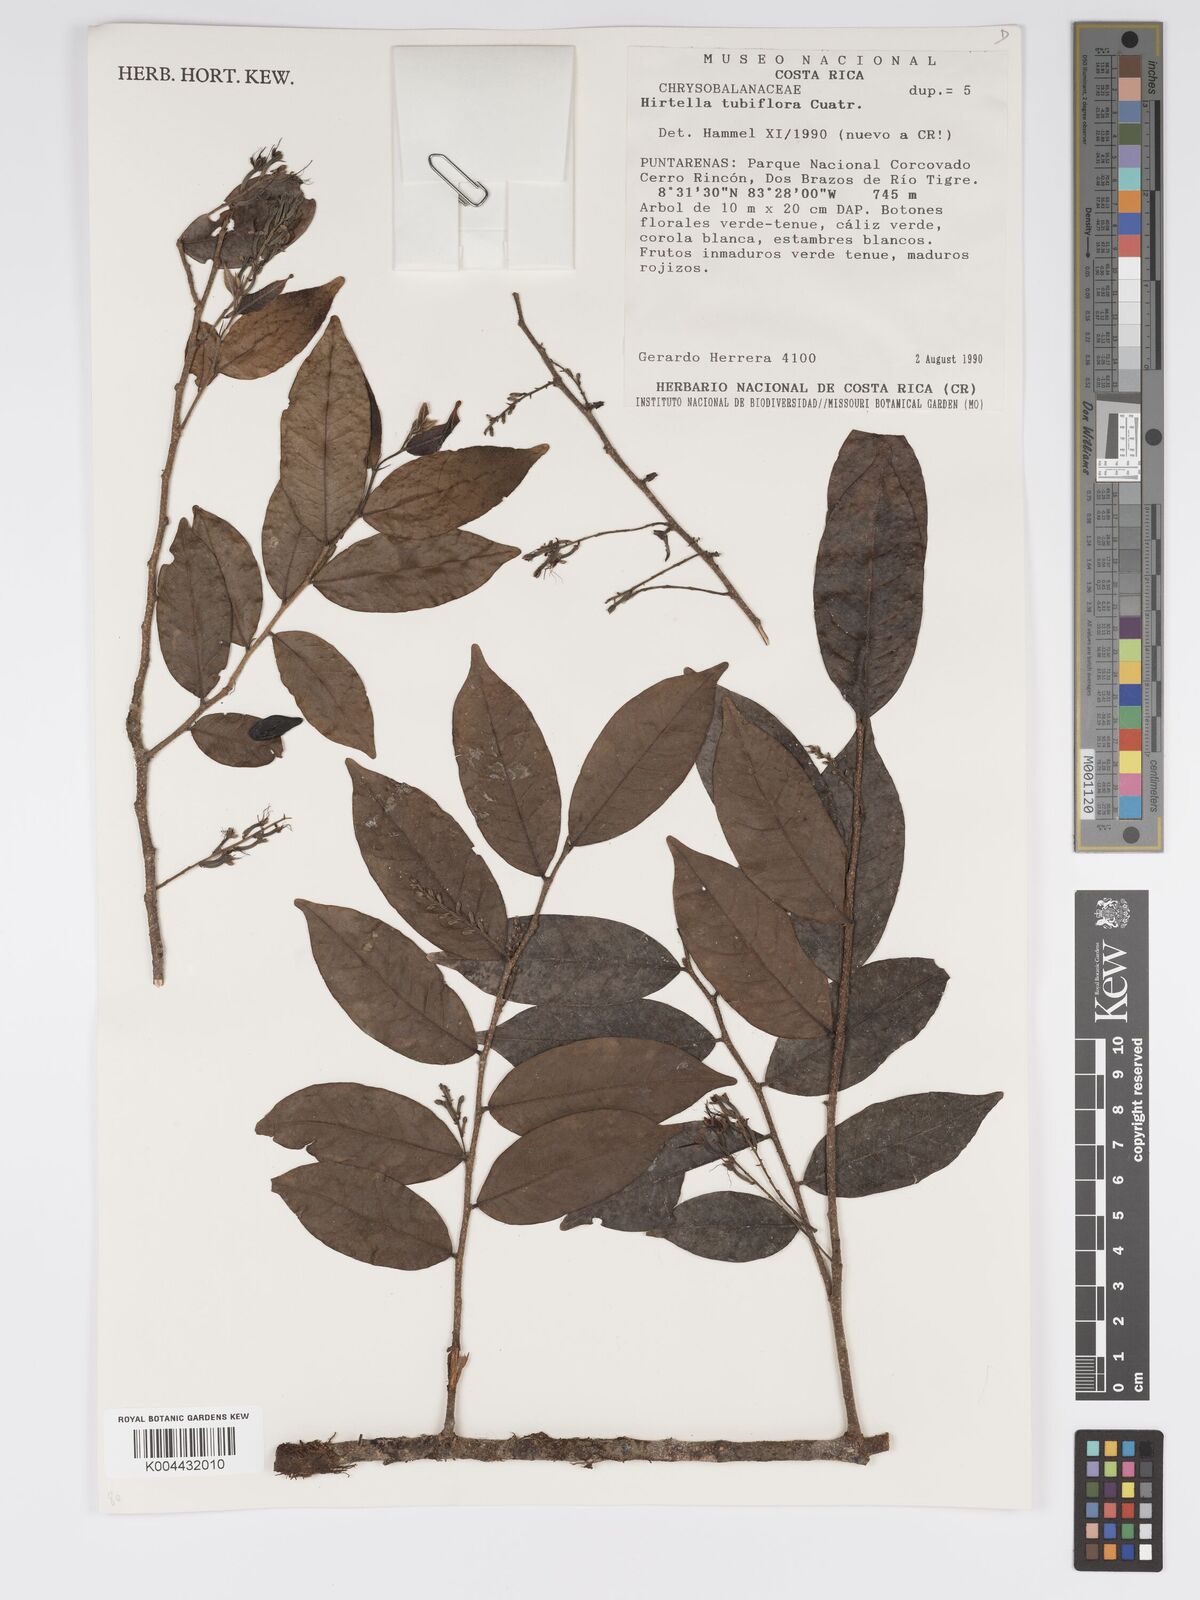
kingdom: Plantae
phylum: Tracheophyta
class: Magnoliopsida
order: Malpighiales
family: Chrysobalanaceae
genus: Hirtella
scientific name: Hirtella tubiflora
